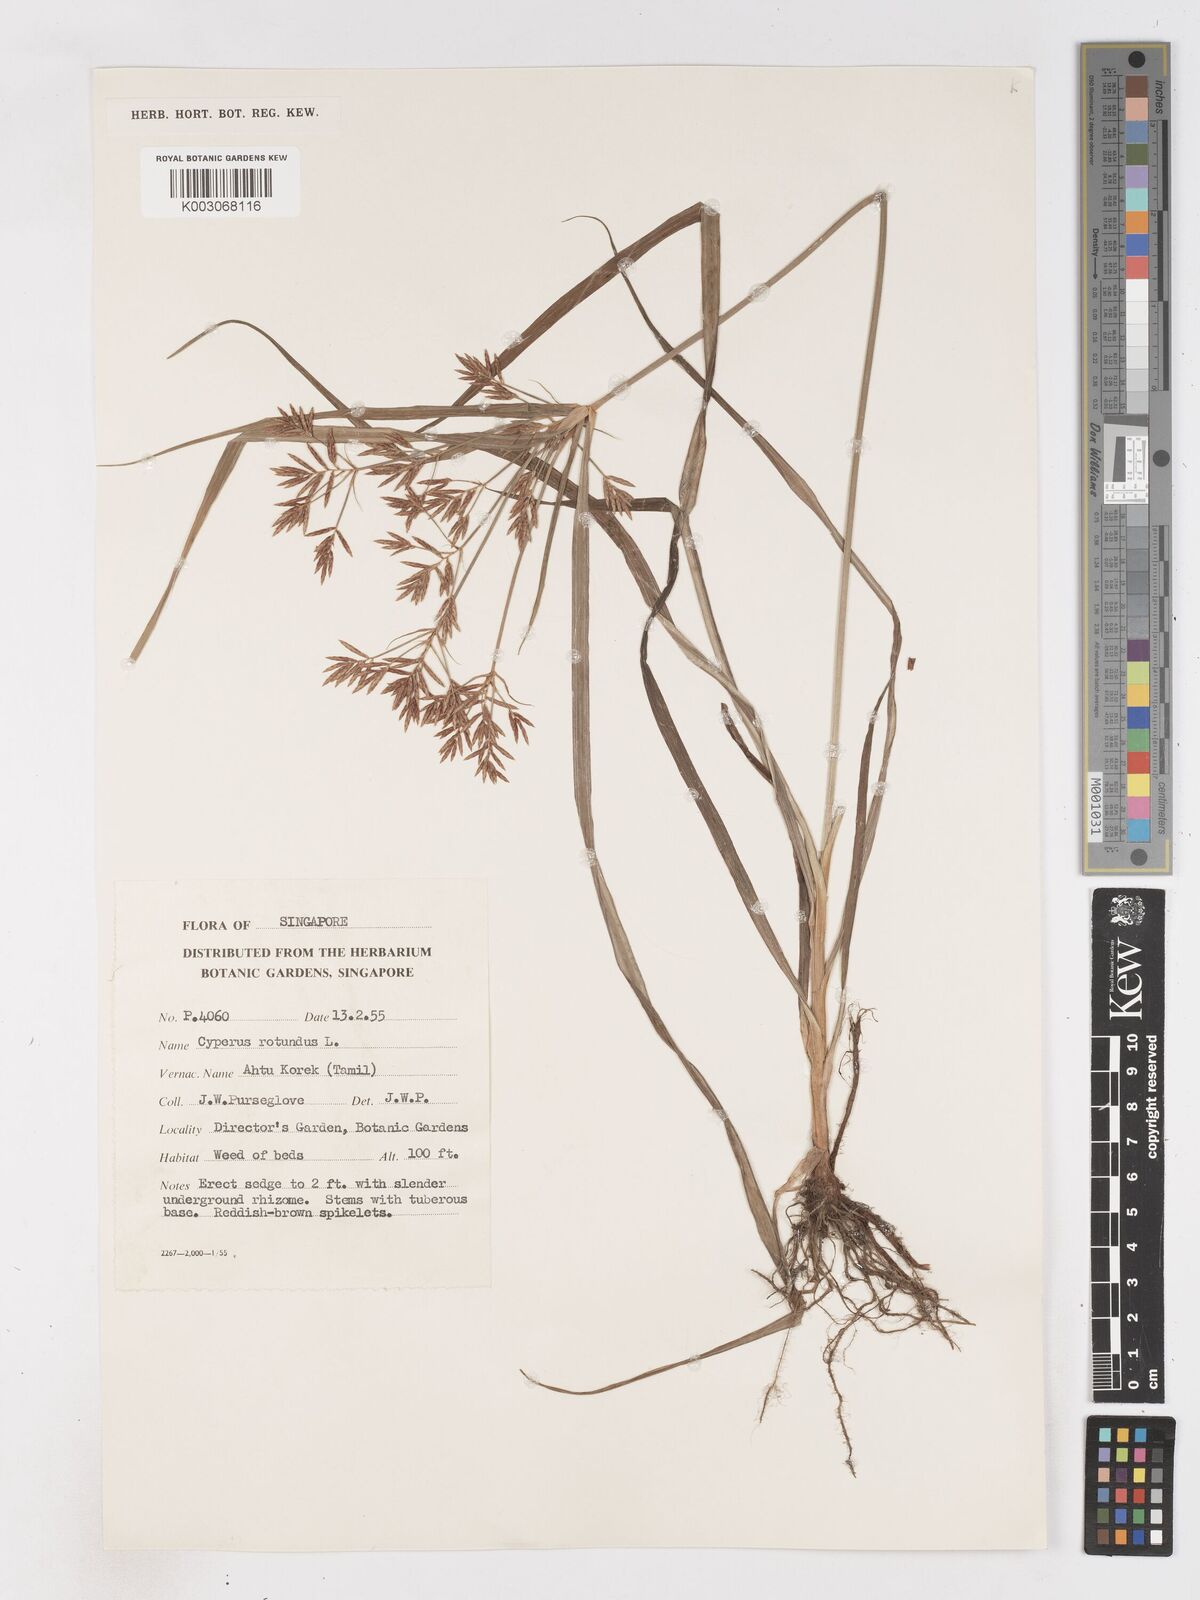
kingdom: Plantae
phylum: Tracheophyta
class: Liliopsida
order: Poales
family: Cyperaceae
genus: Cyperus
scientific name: Cyperus rotundus
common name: Nutgrass
